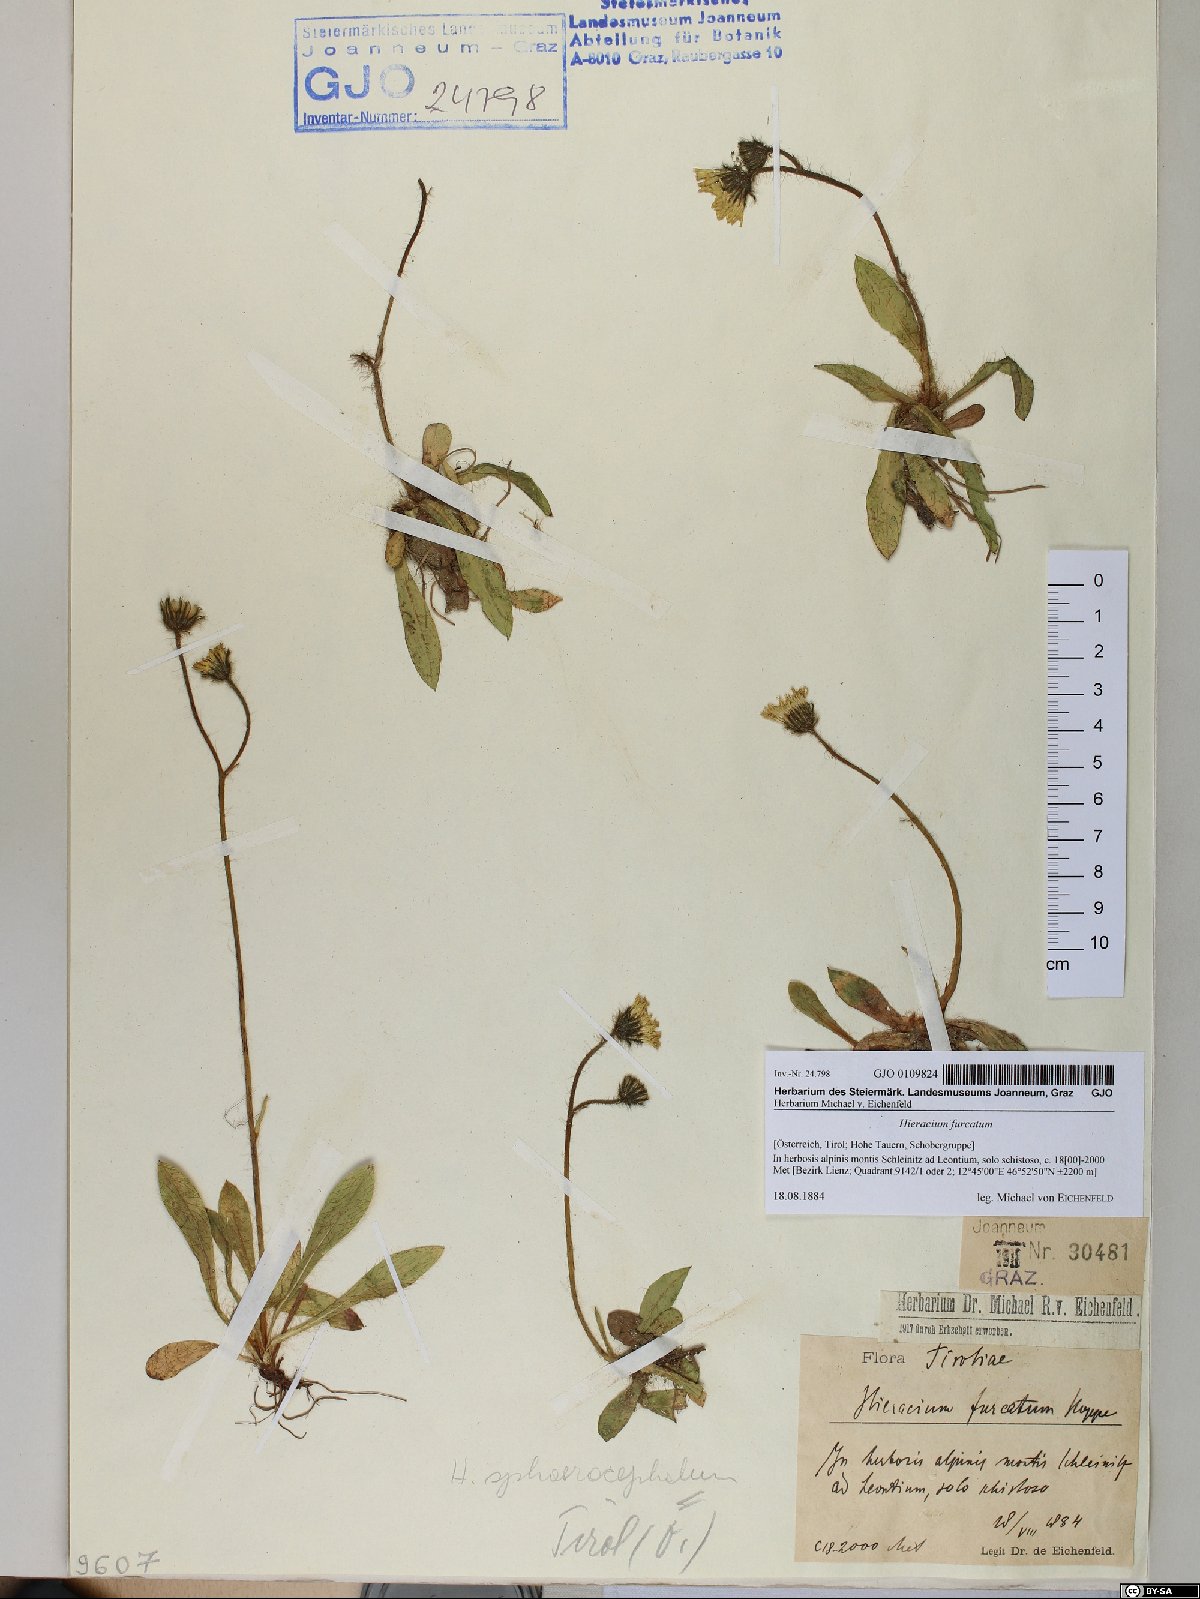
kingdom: Plantae
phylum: Tracheophyta
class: Magnoliopsida
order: Asterales
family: Asteraceae
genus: Pilosella
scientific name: Pilosella sphaerocephala
